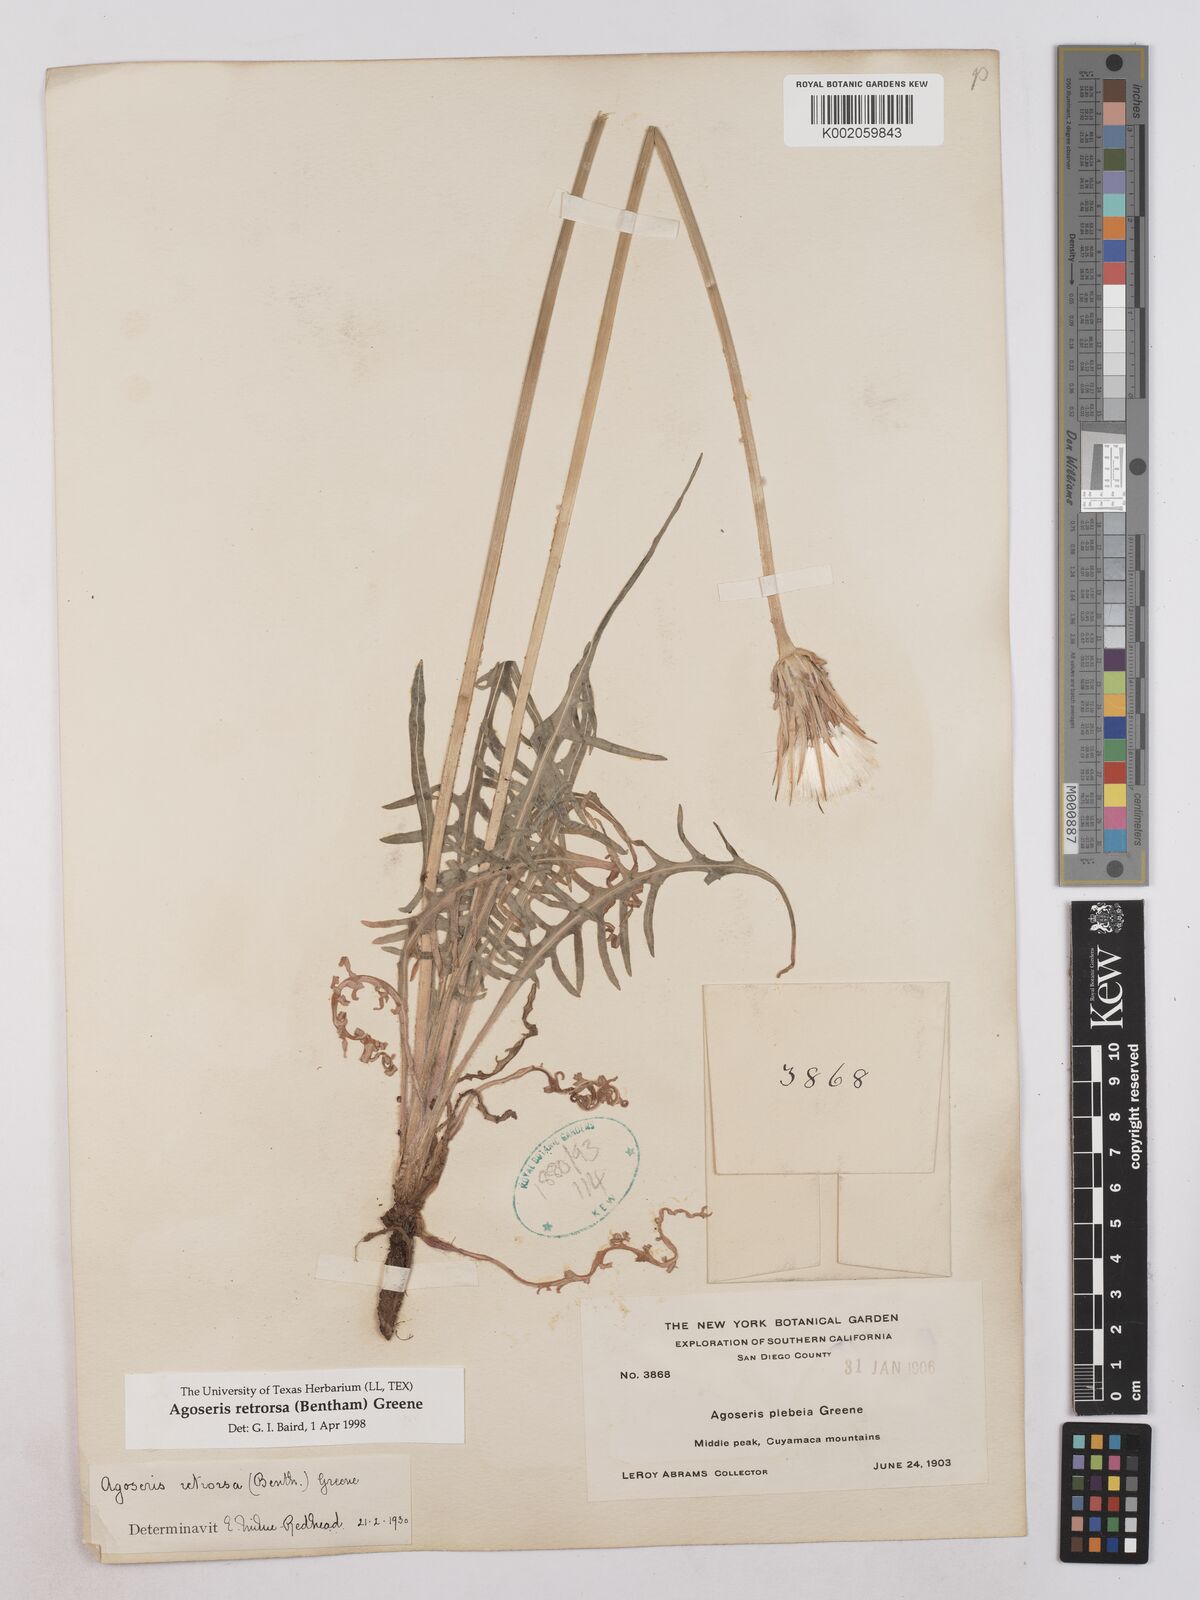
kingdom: Plantae
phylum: Tracheophyta
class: Magnoliopsida
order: Asterales
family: Asteraceae
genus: Agoseris
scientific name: Agoseris retrorsa
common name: Spearleaf agoseris
